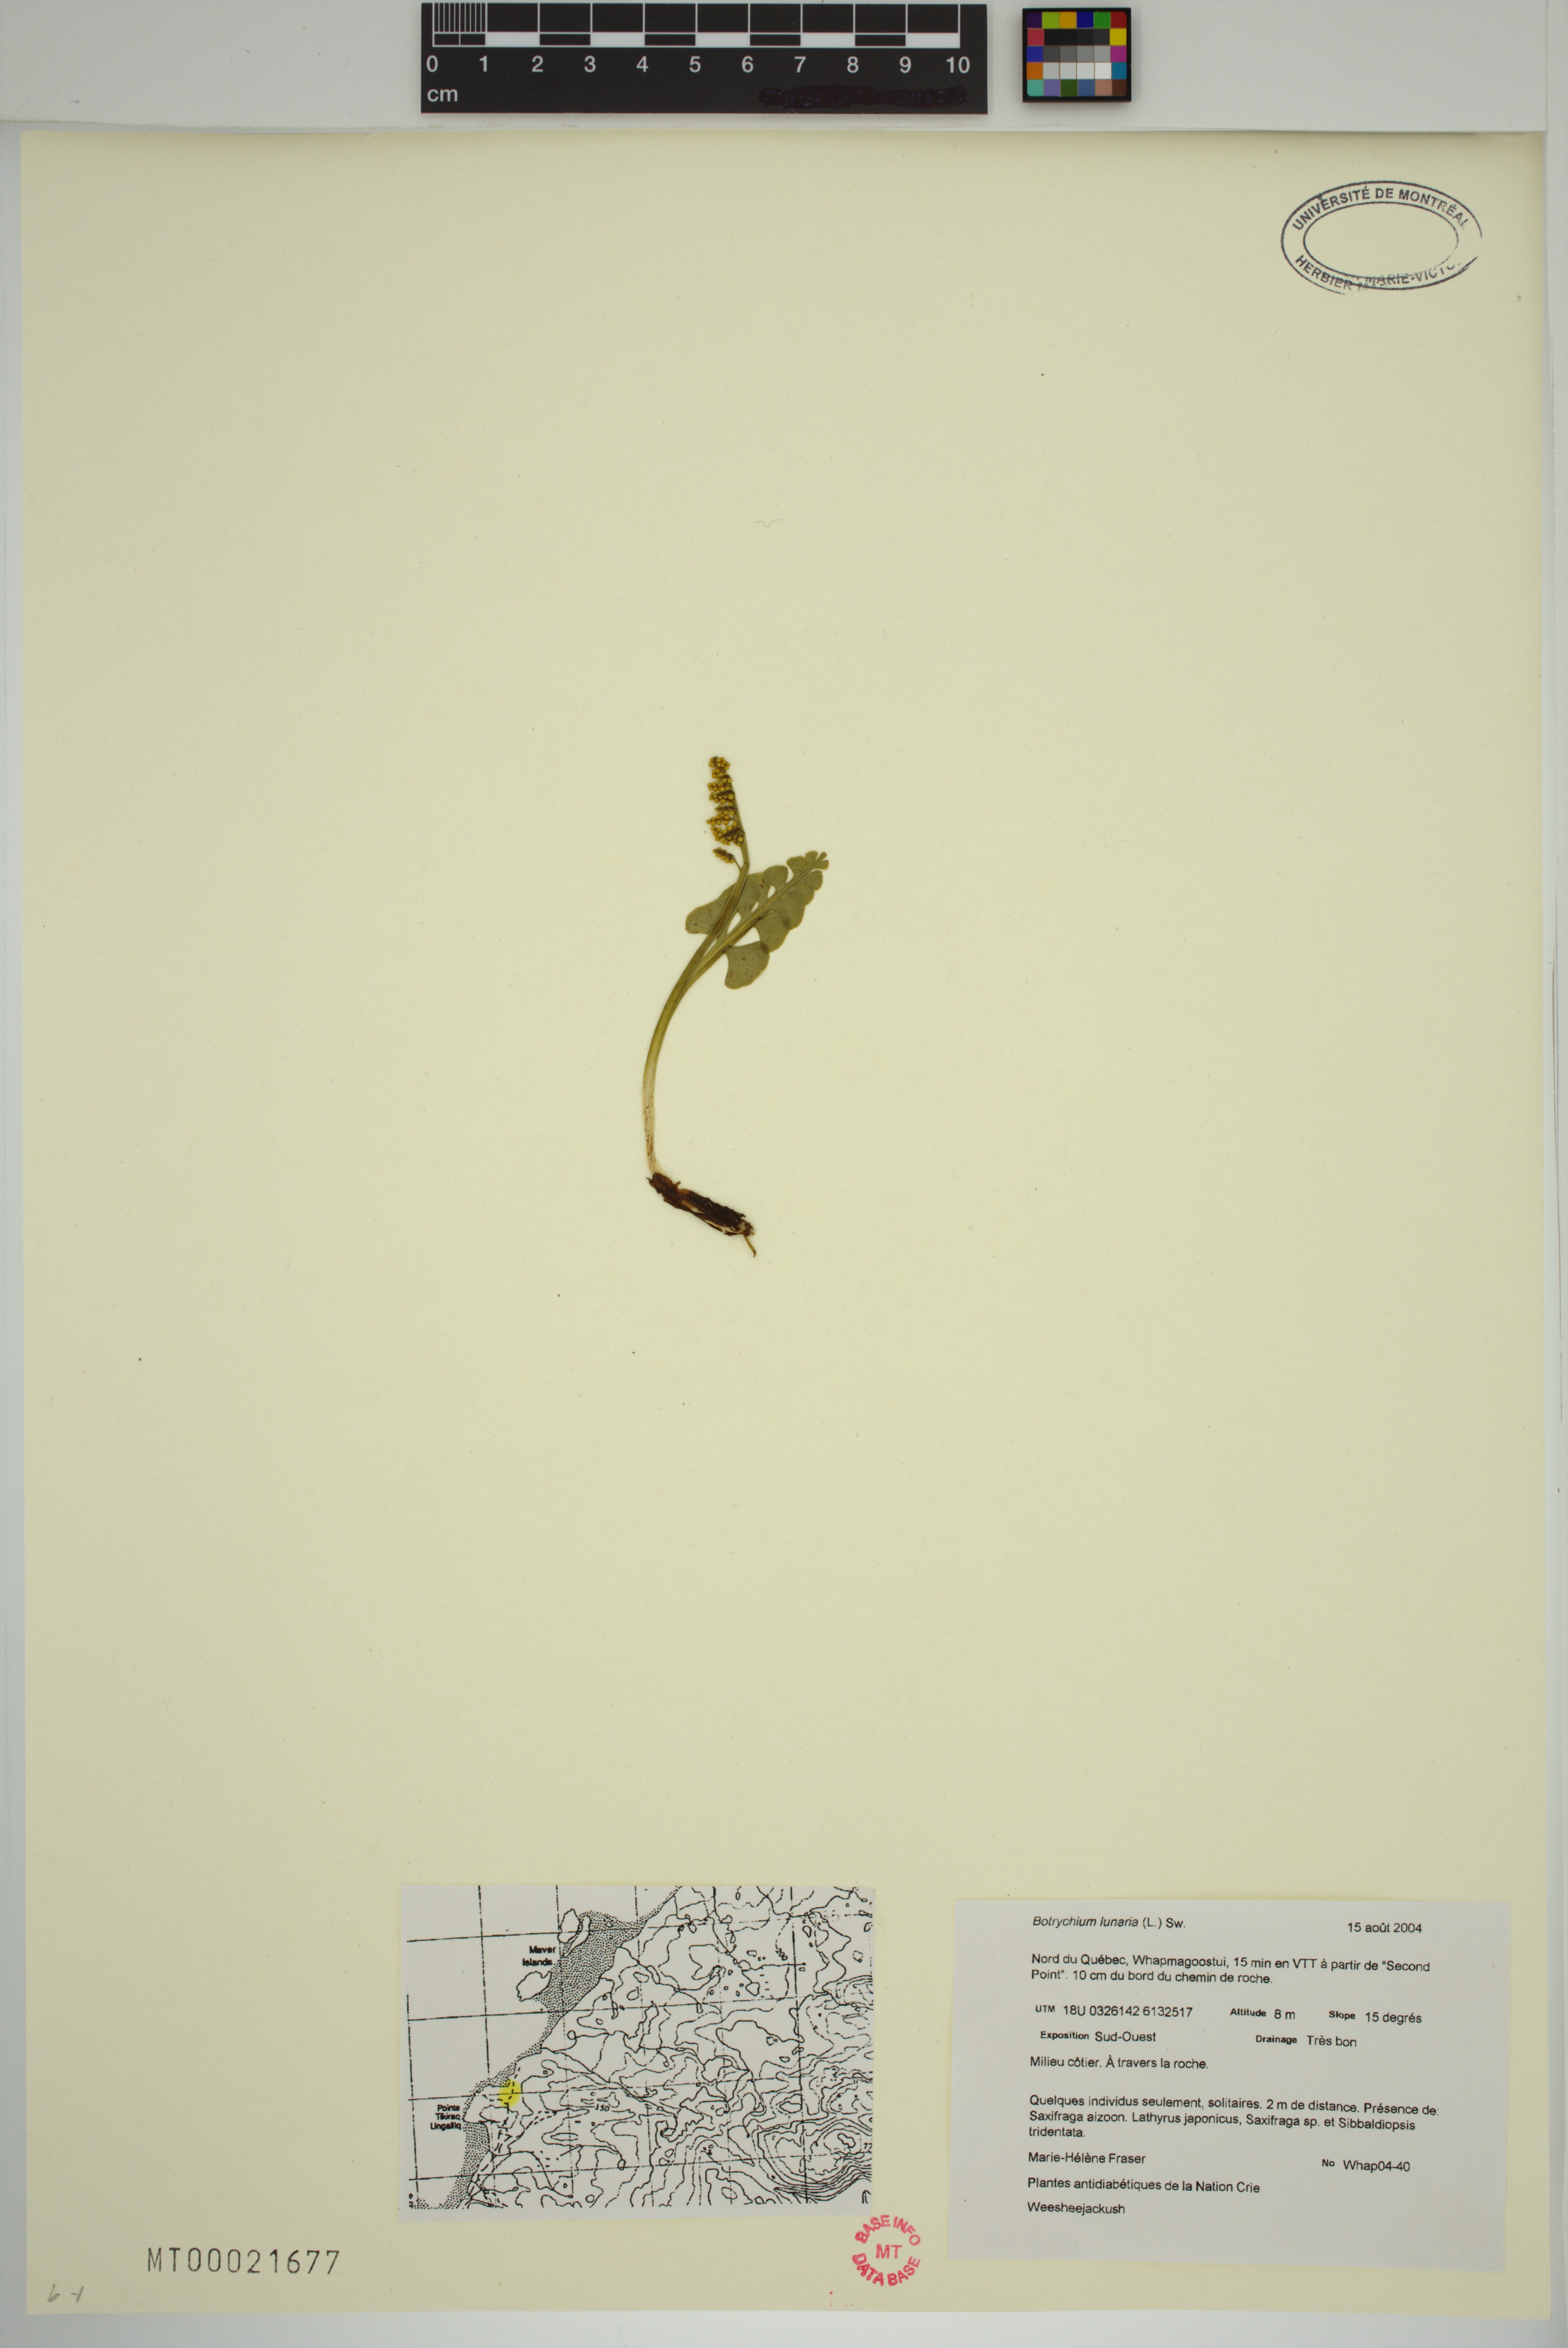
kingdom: Plantae
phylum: Tracheophyta
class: Polypodiopsida
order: Ophioglossales
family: Ophioglossaceae
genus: Botrychium
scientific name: Botrychium lunaria
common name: Moonwort
